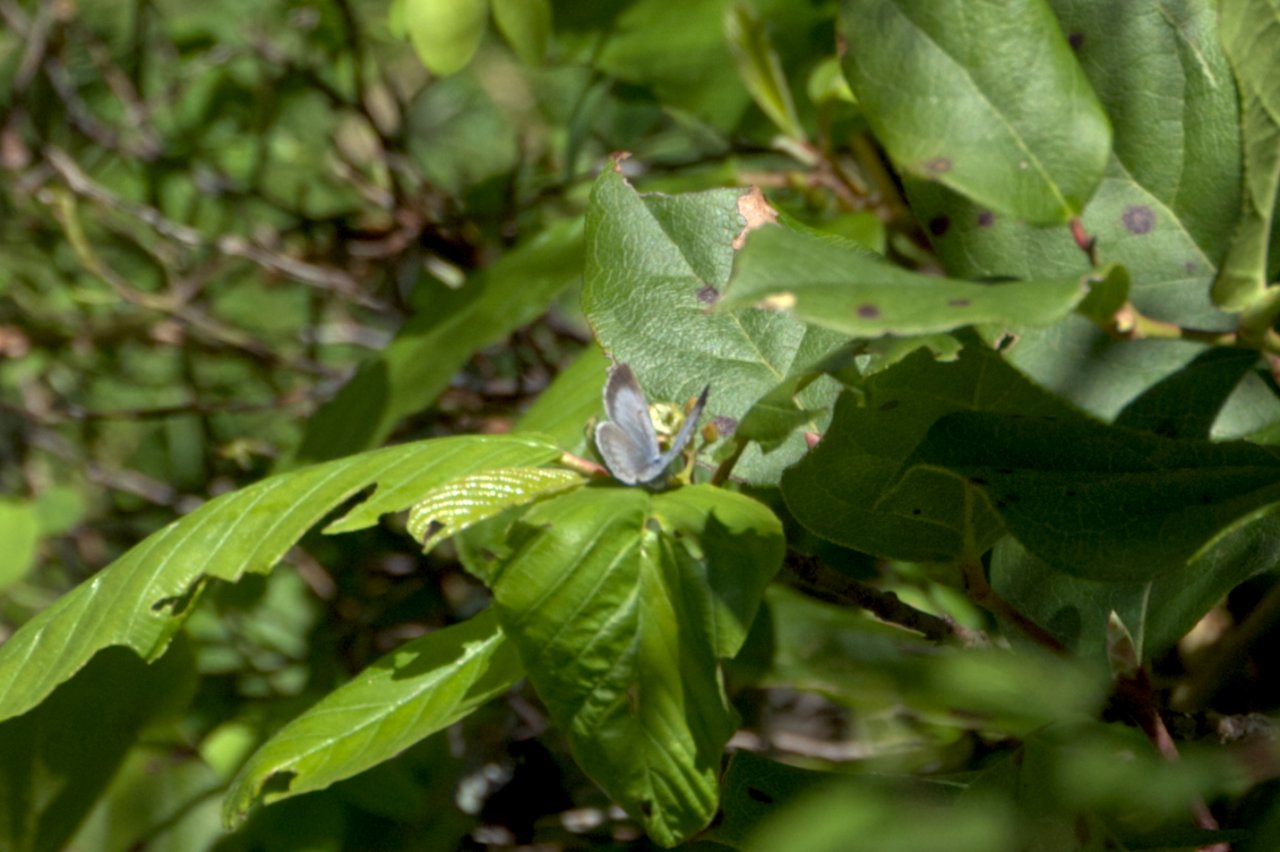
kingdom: Animalia
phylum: Arthropoda
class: Insecta
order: Lepidoptera
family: Lycaenidae
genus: Celastrina
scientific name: Celastrina ladon
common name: Echo Azure
